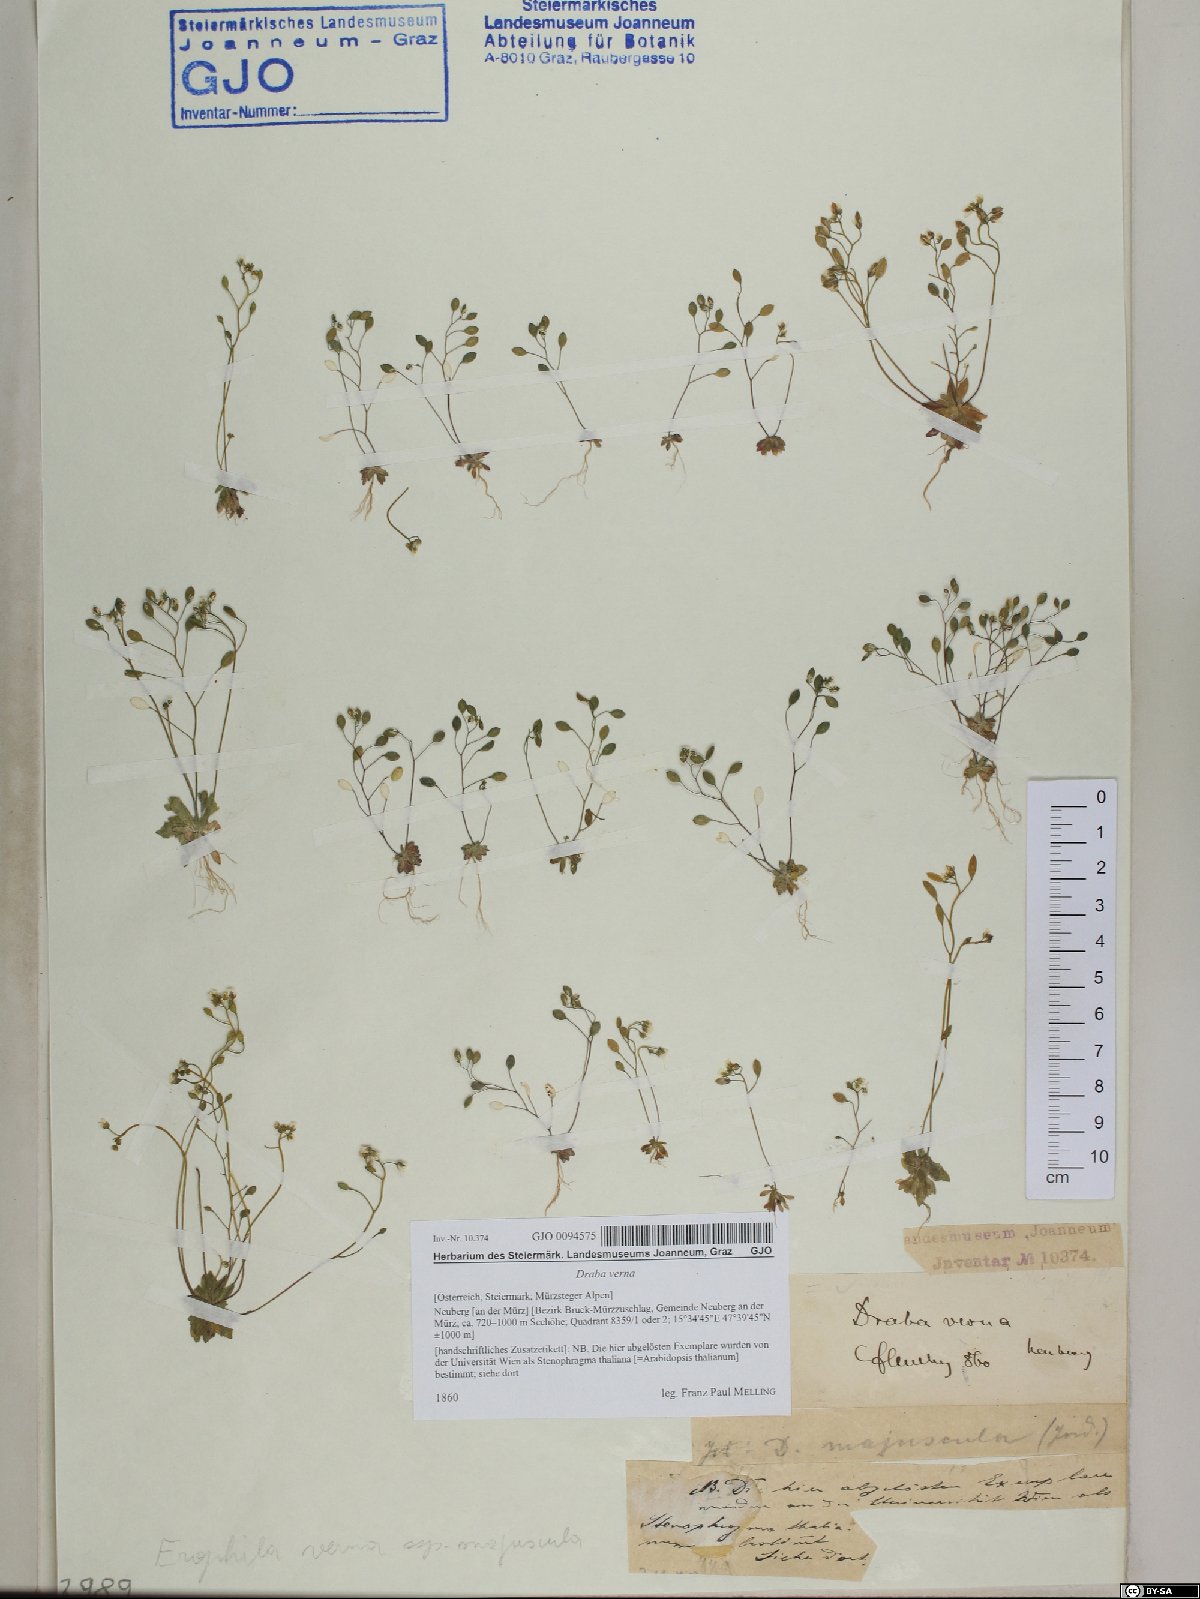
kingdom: Plantae
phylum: Tracheophyta
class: Magnoliopsida
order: Brassicales
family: Brassicaceae
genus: Draba
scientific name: Draba verna
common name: Spring draba
